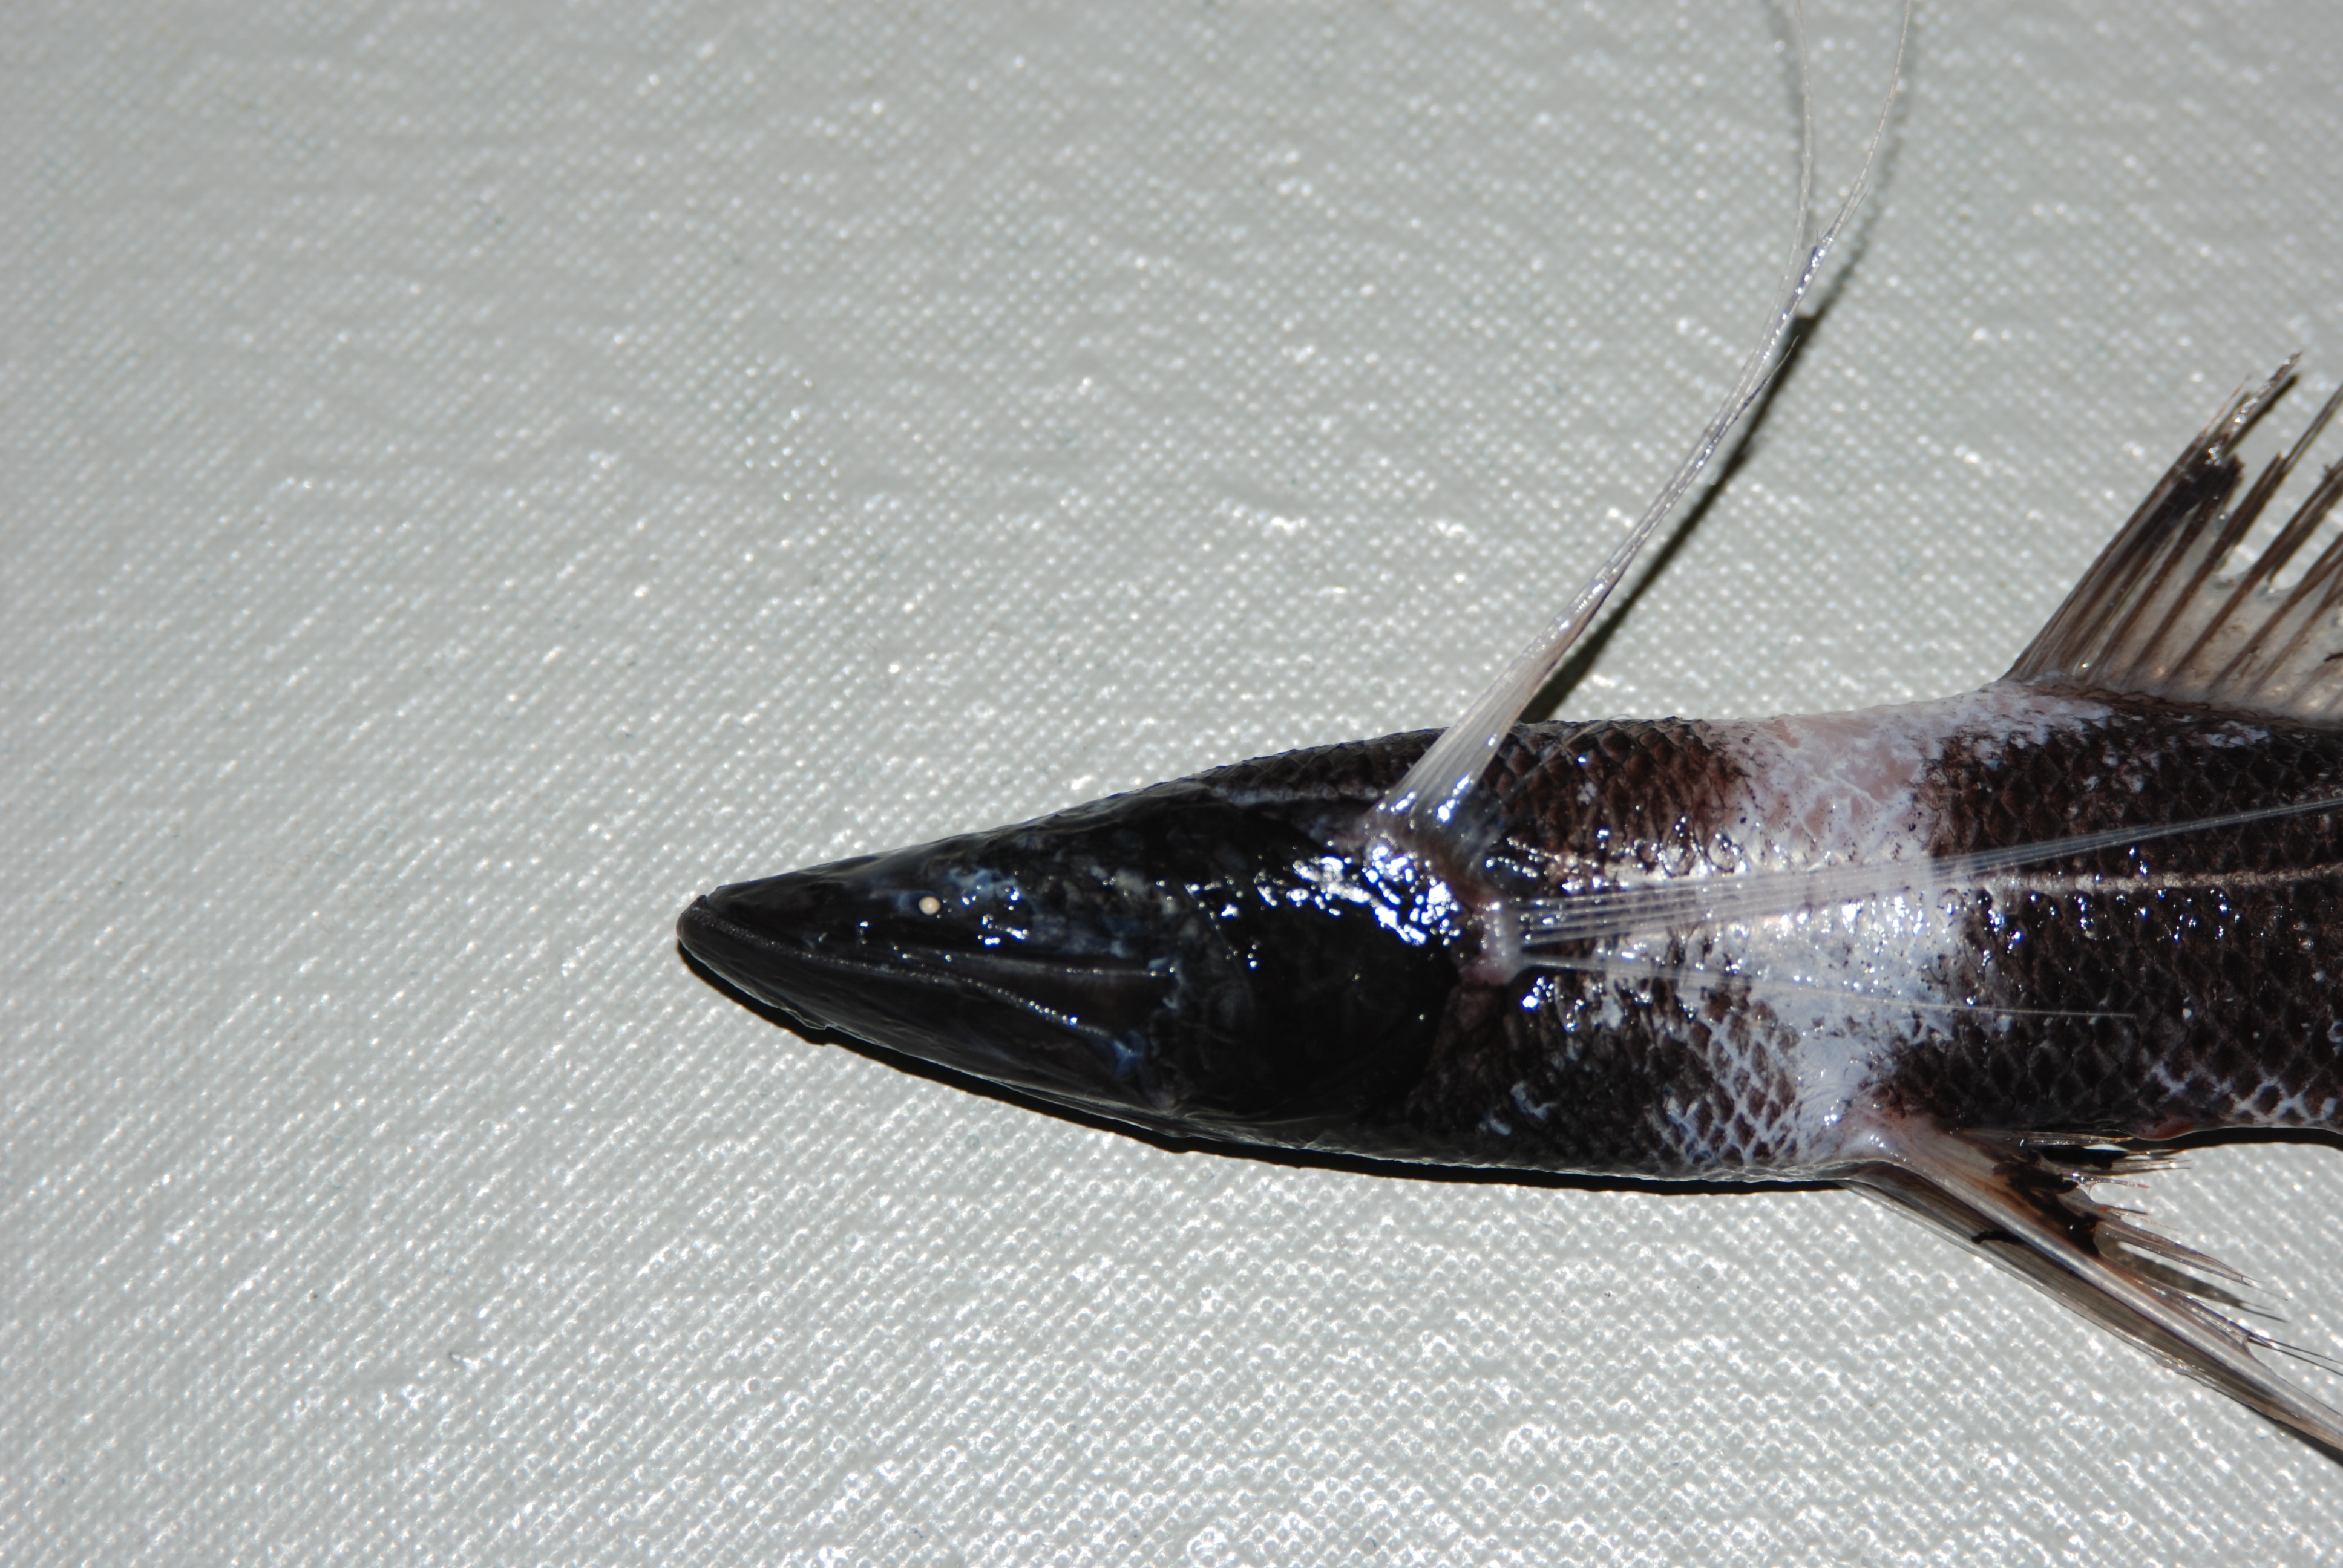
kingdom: Animalia
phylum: Chordata
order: Aulopiformes
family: Ipnopidae
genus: Bathypterois
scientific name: Bathypterois guentheri
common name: Tribute spiderfish
